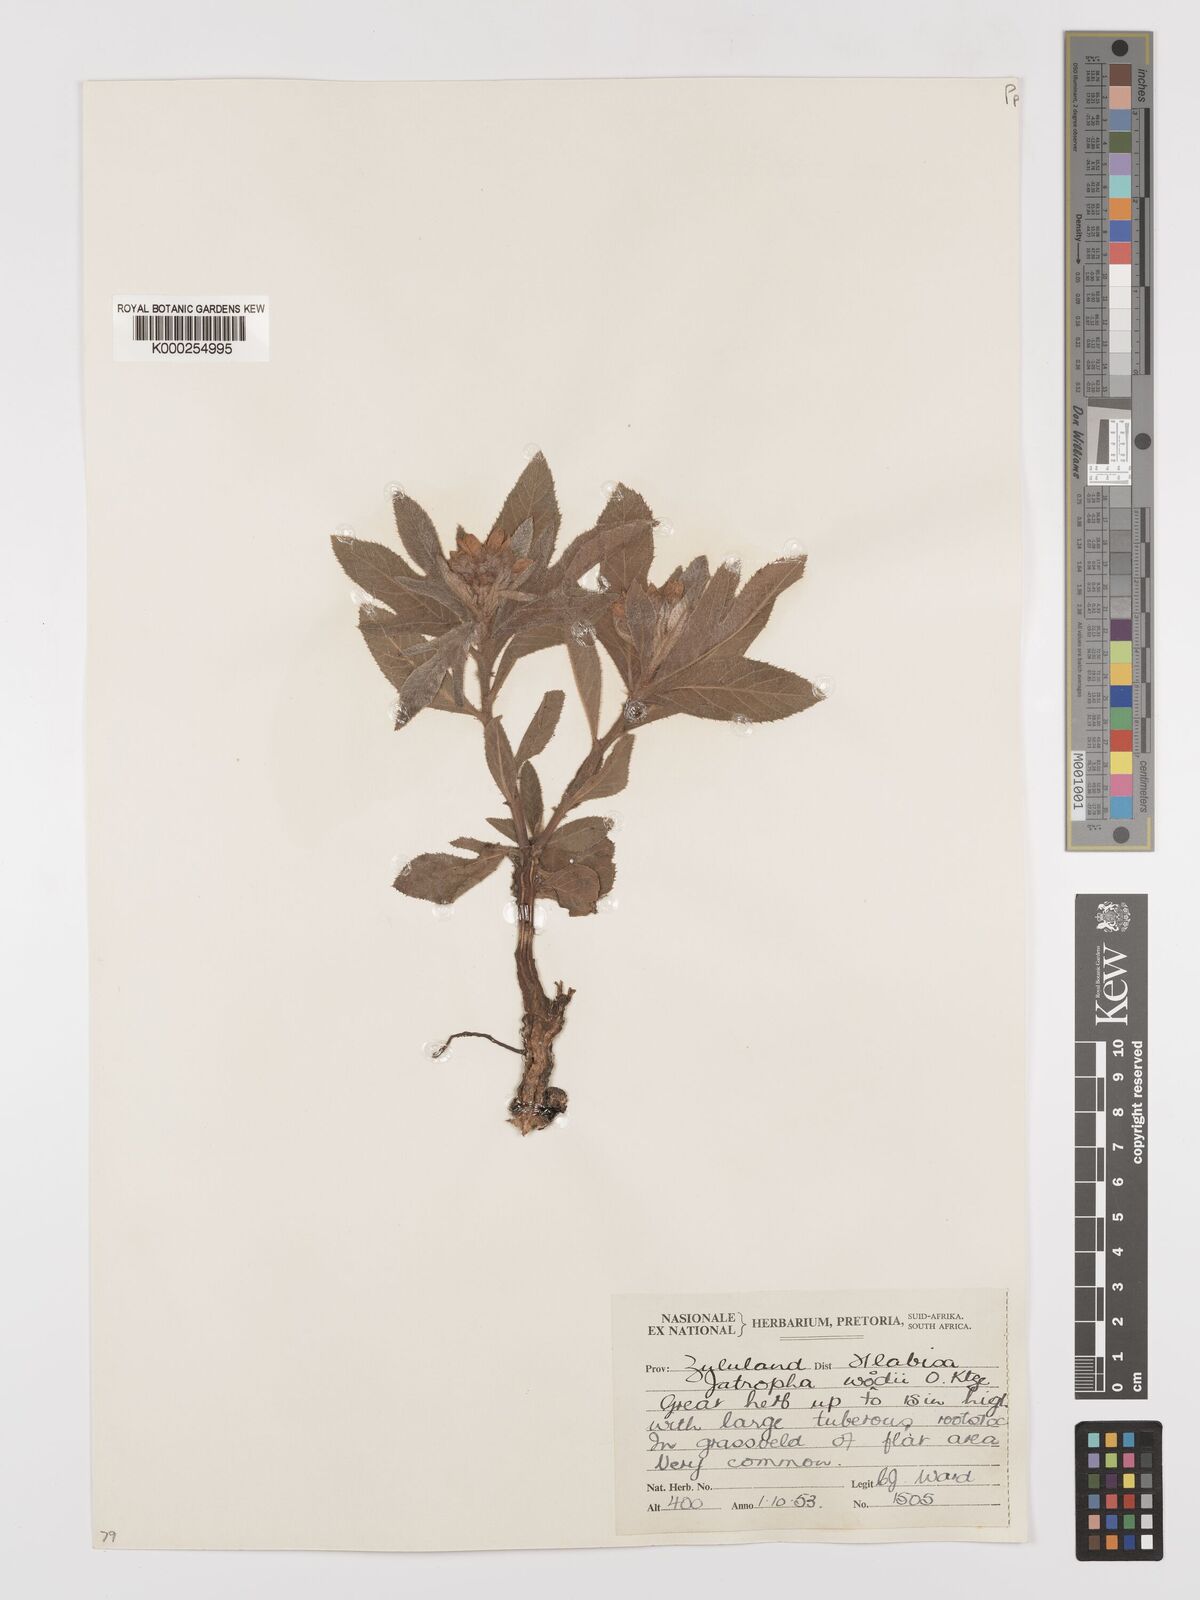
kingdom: Plantae
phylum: Tracheophyta
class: Magnoliopsida
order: Malpighiales
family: Euphorbiaceae
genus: Jatropha
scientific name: Jatropha woodii
